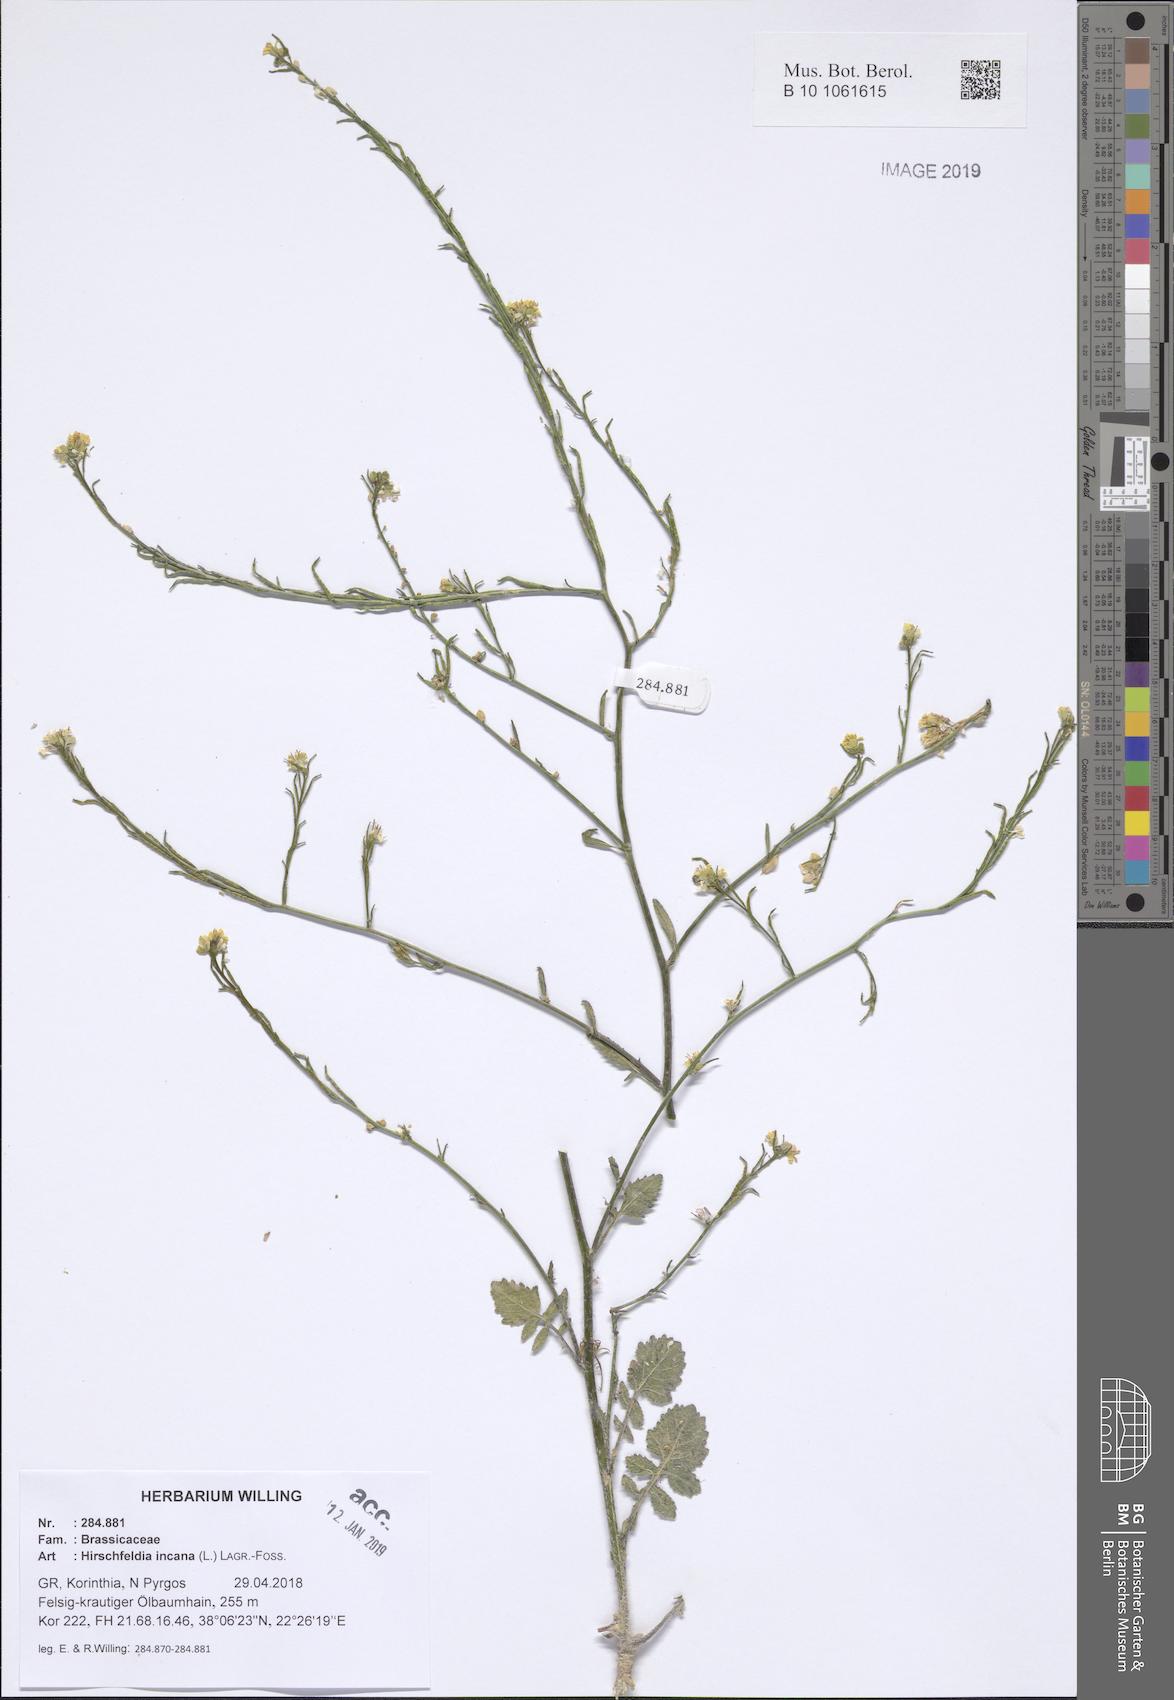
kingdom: Plantae
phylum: Tracheophyta
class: Magnoliopsida
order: Brassicales
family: Brassicaceae
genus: Hirschfeldia
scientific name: Hirschfeldia incana
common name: Hoary mustard
